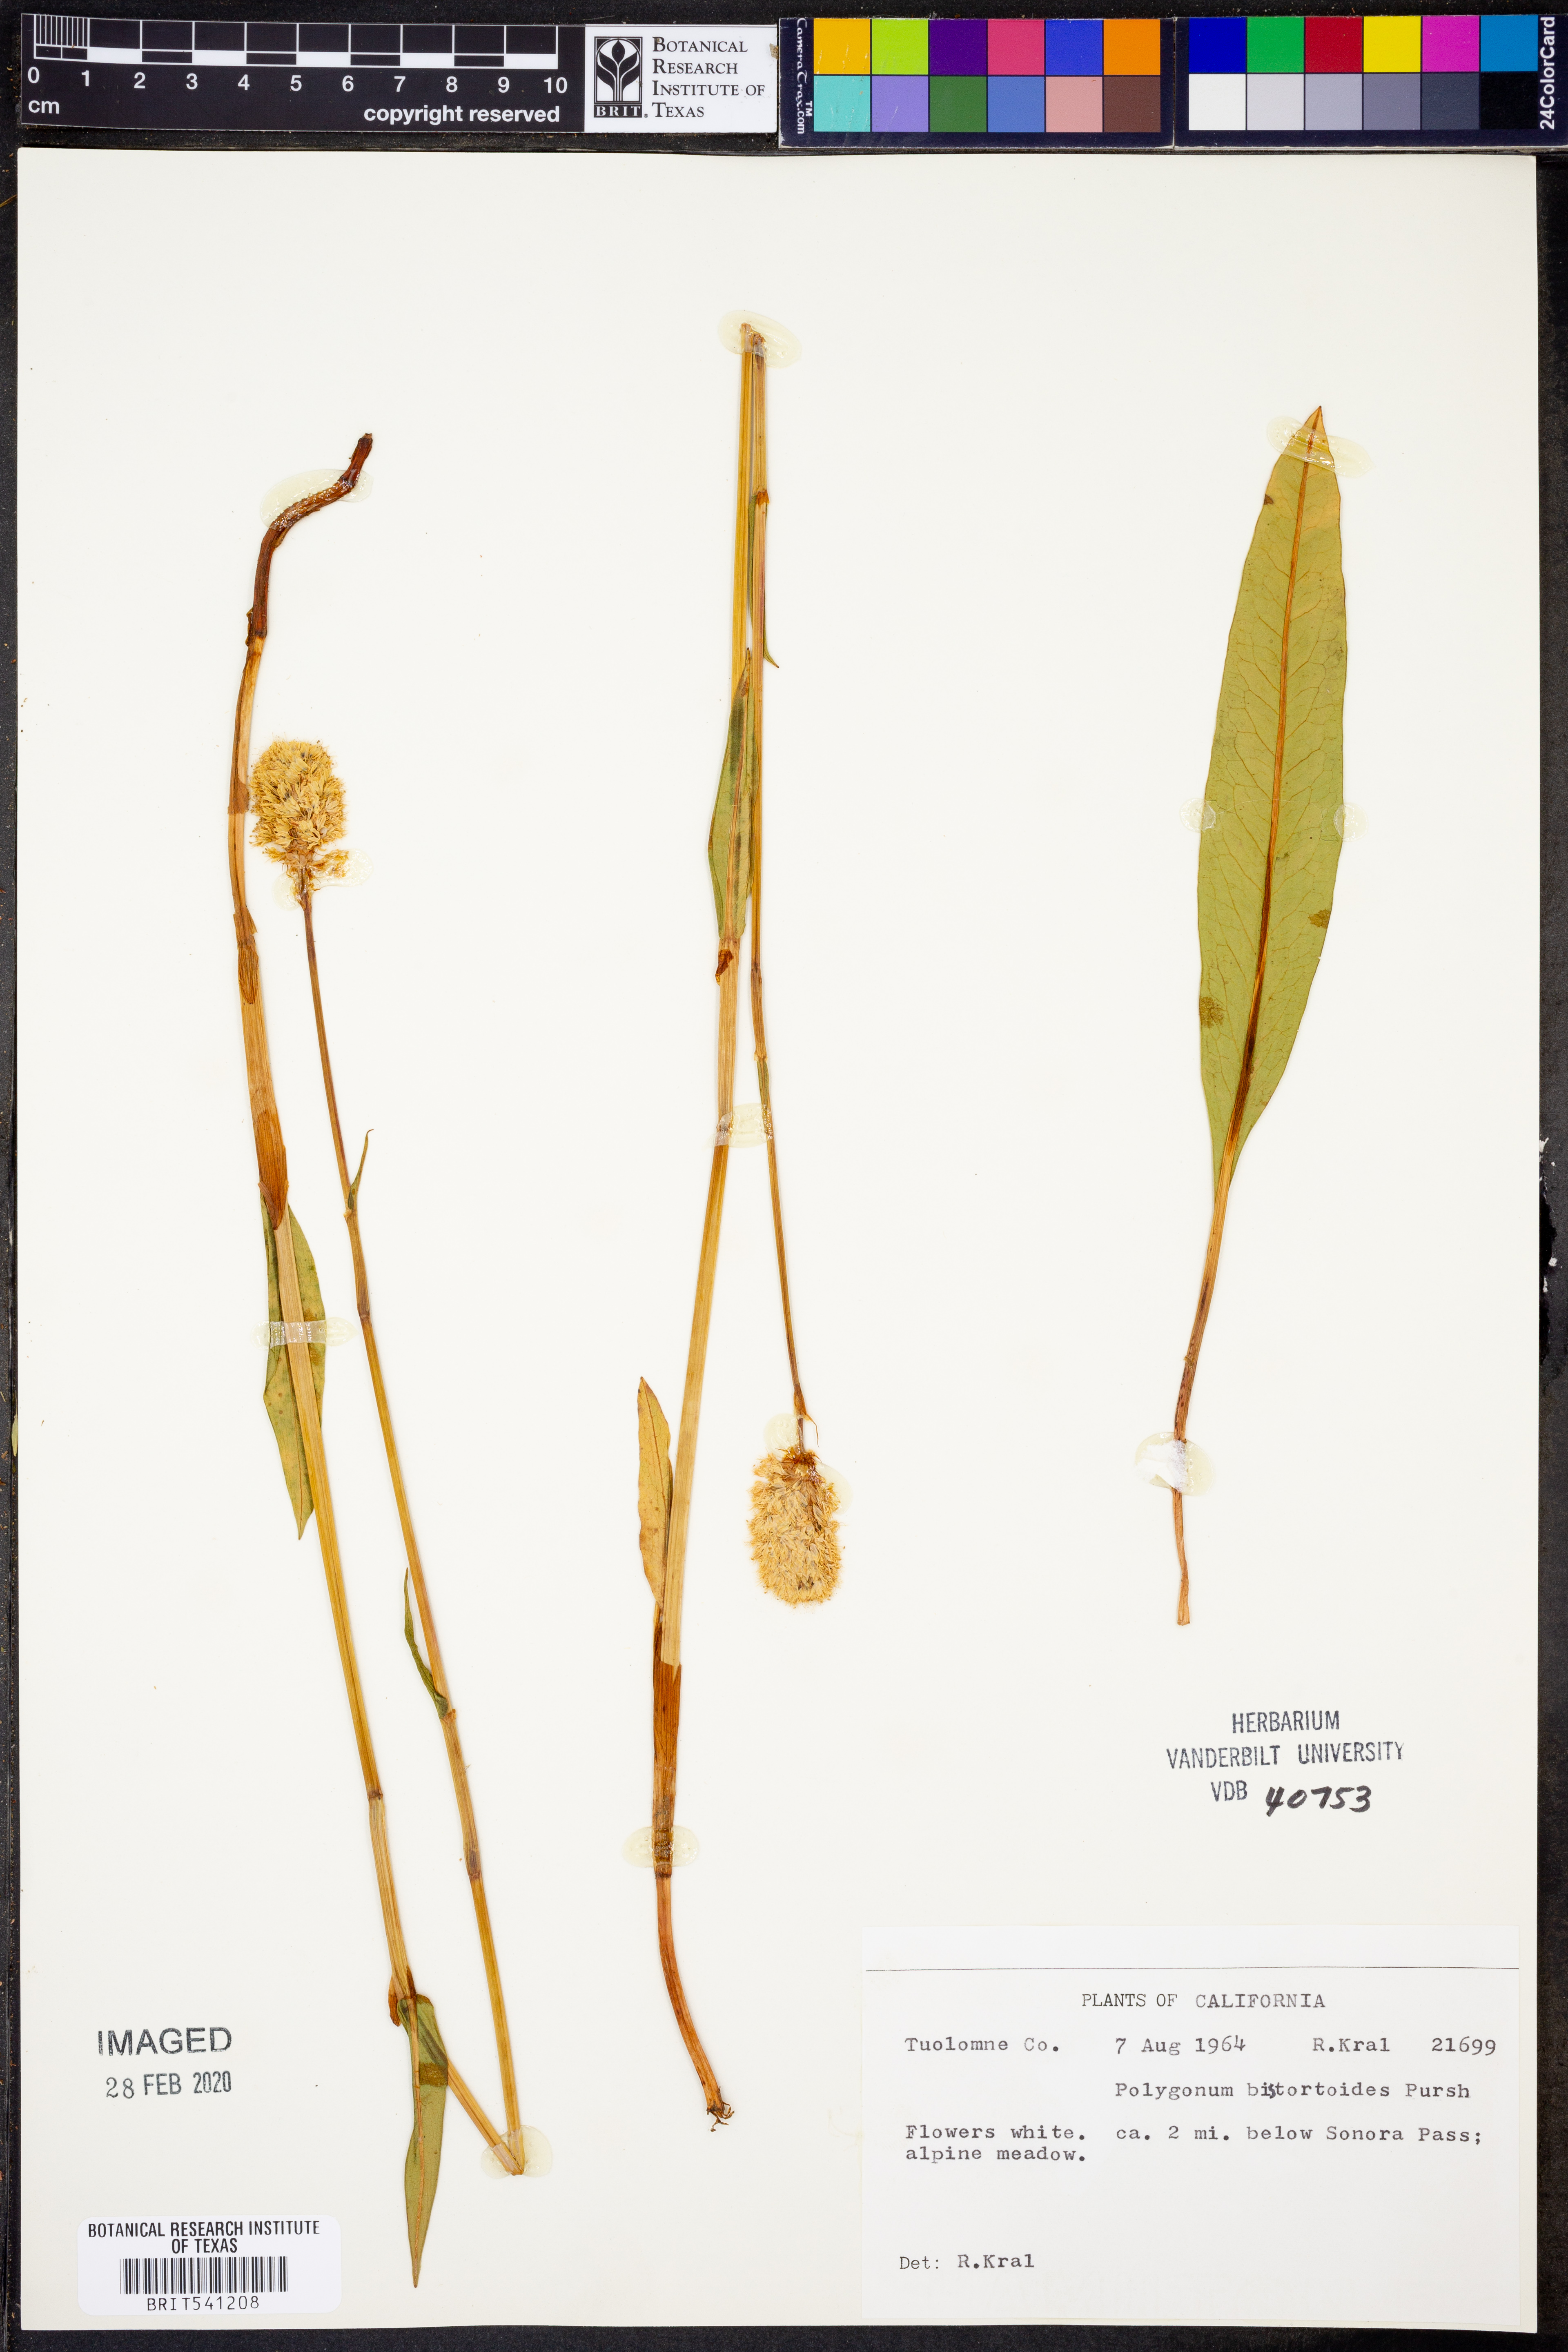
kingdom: Plantae
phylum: Tracheophyta
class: Magnoliopsida
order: Caryophyllales
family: Polygonaceae
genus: Bistorta
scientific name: Bistorta bistortoides
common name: American bistort
